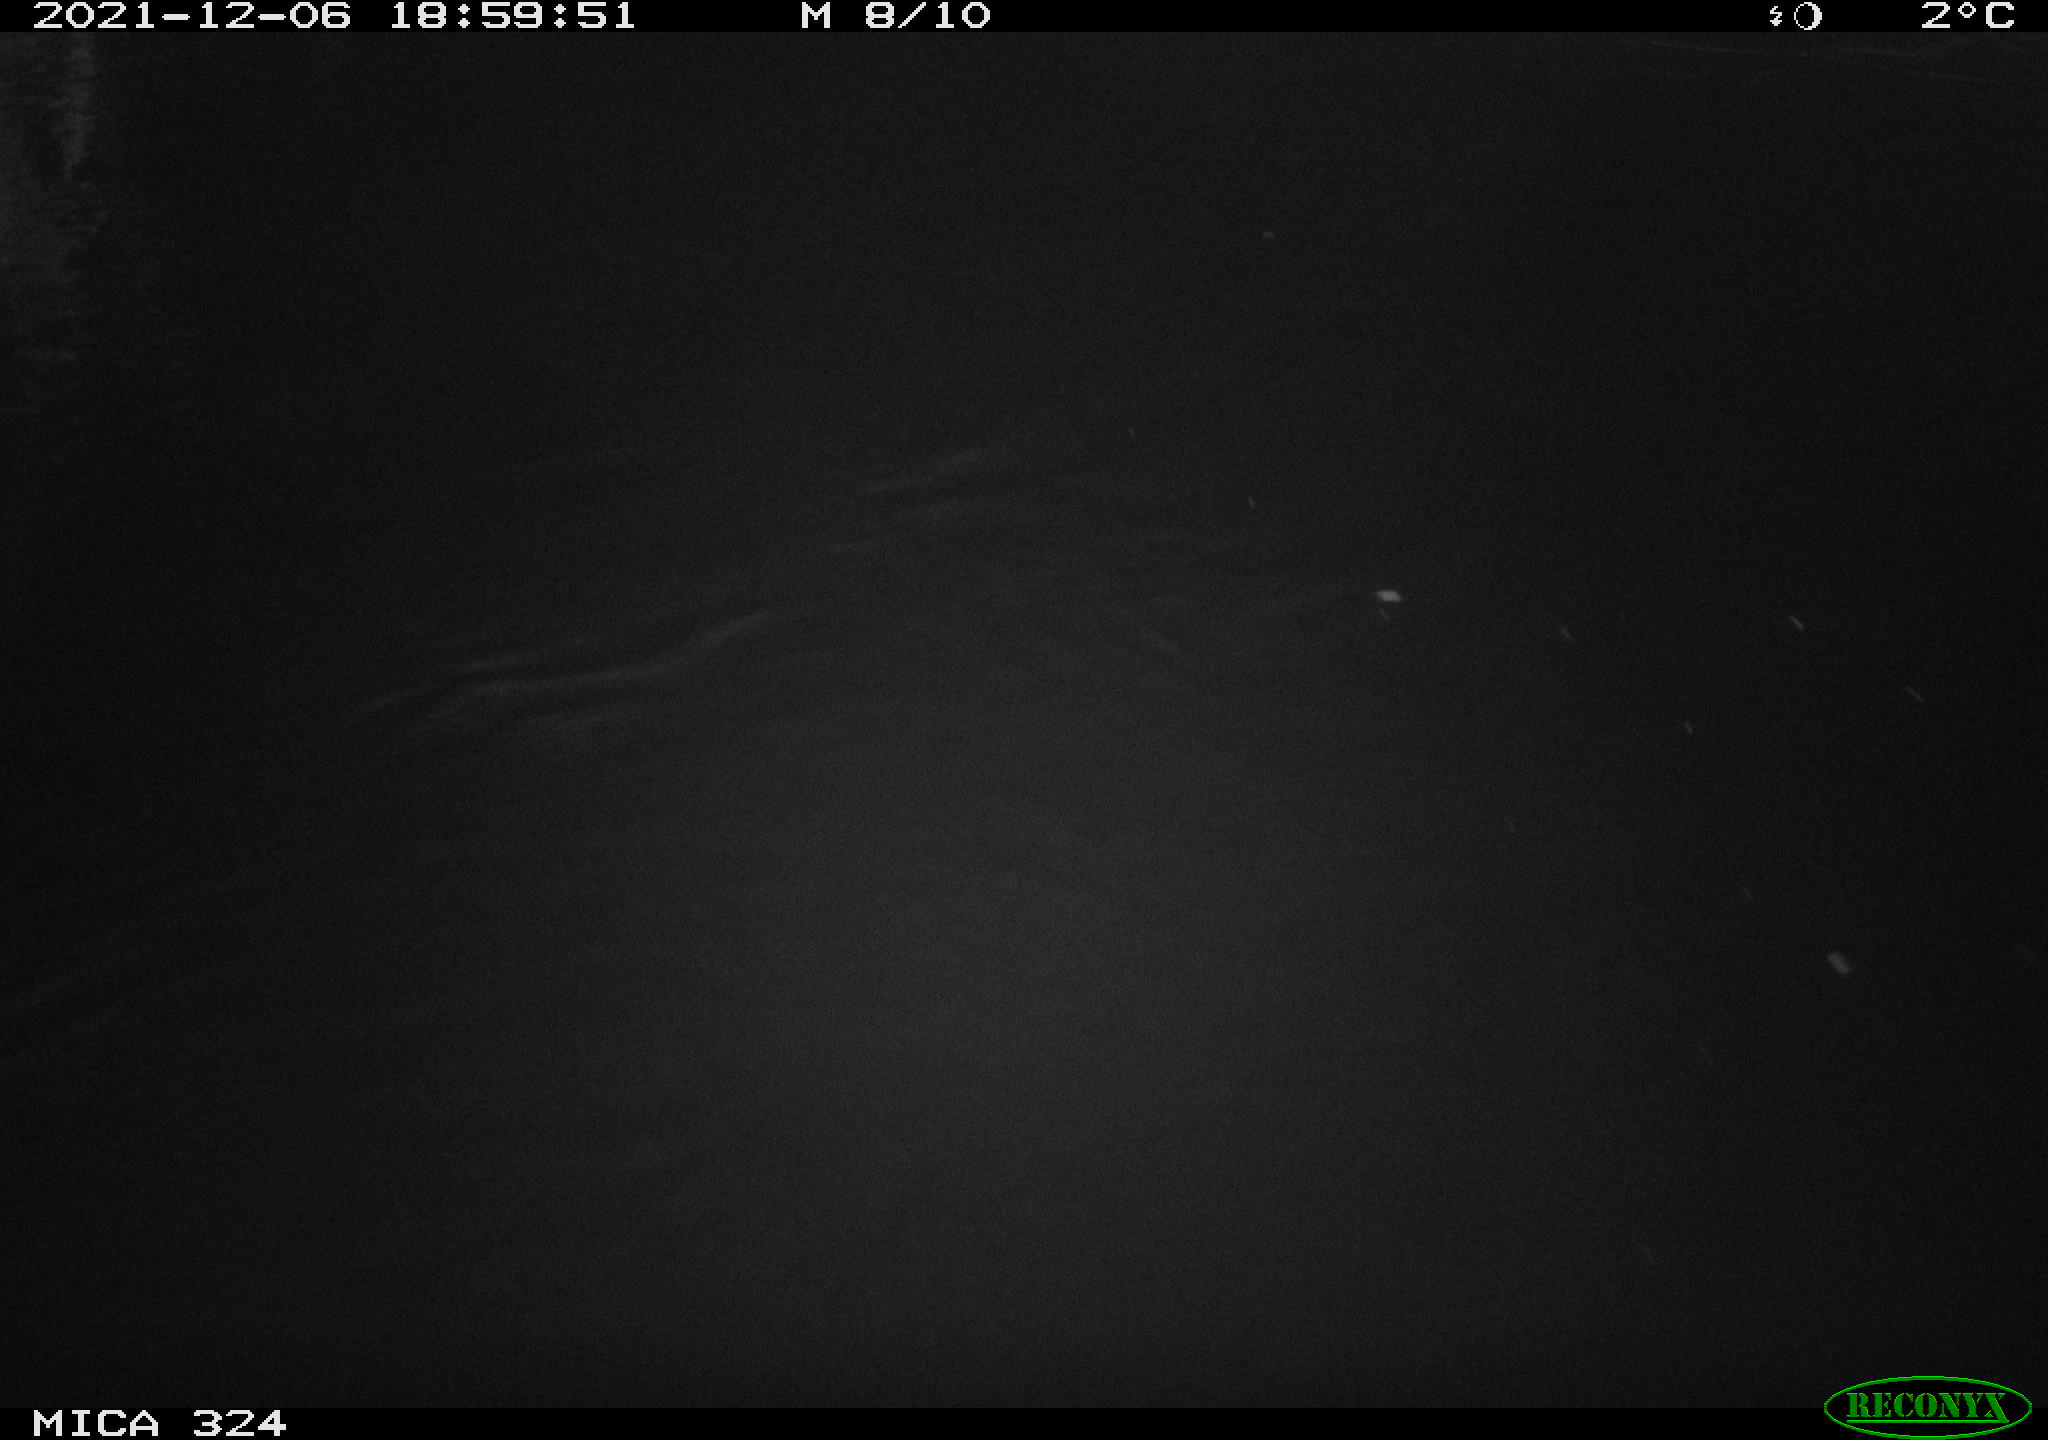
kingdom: Animalia
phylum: Chordata
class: Mammalia
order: Rodentia
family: Cricetidae
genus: Ondatra
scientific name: Ondatra zibethicus
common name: Muskrat
